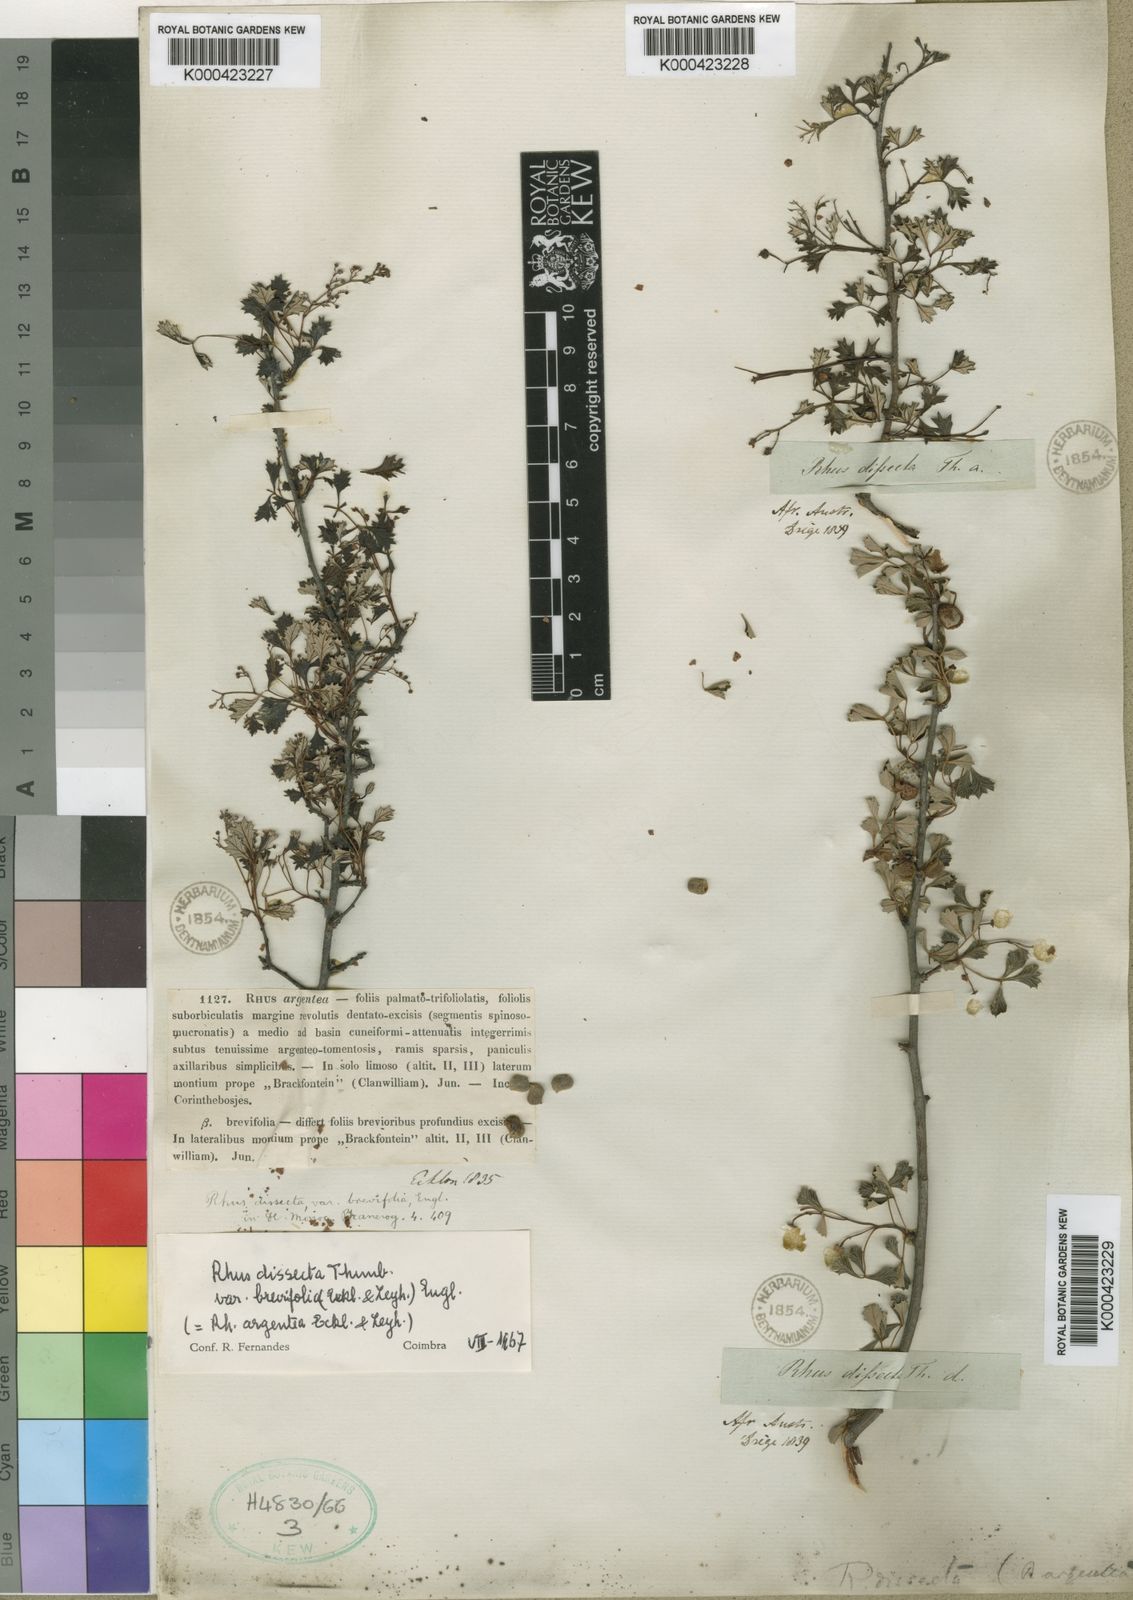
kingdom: Plantae
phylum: Tracheophyta
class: Magnoliopsida
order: Sapindales
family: Anacardiaceae
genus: Searsia
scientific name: Searsia dissecta
